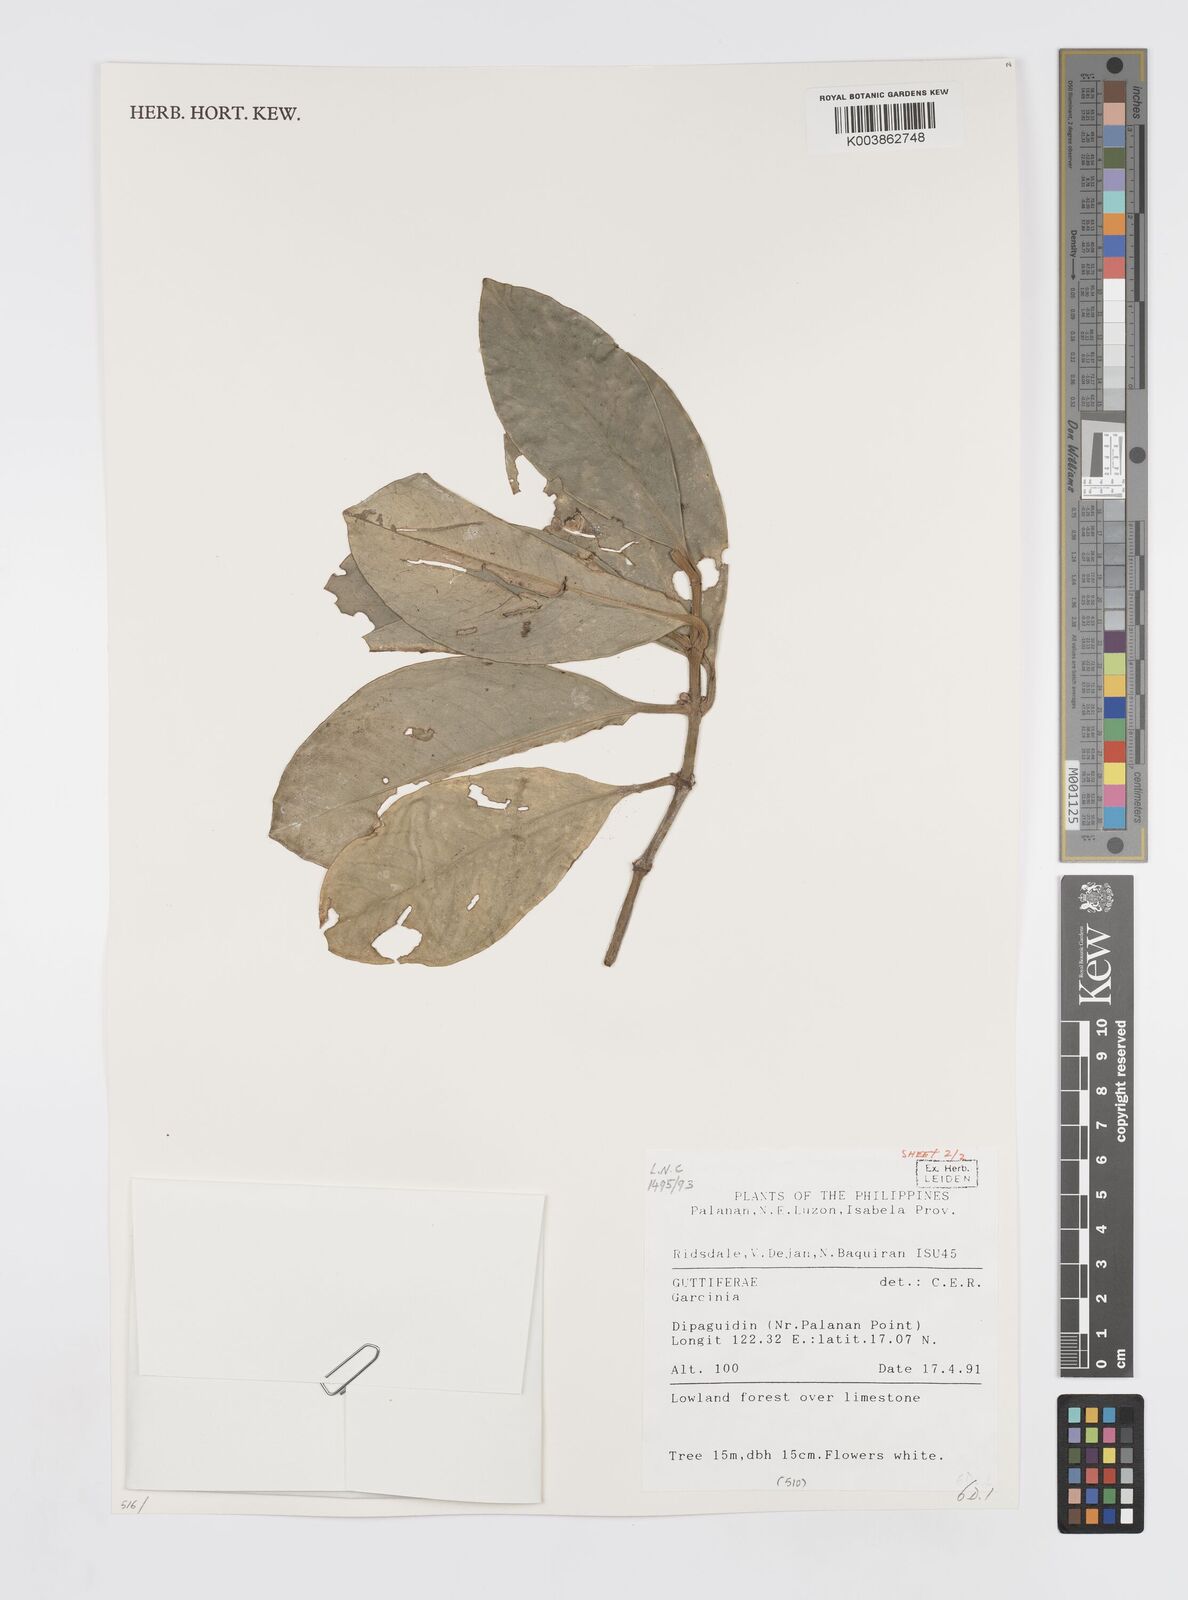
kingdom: Plantae
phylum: Tracheophyta
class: Magnoliopsida
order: Malpighiales
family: Clusiaceae
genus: Garcinia
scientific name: Garcinia
